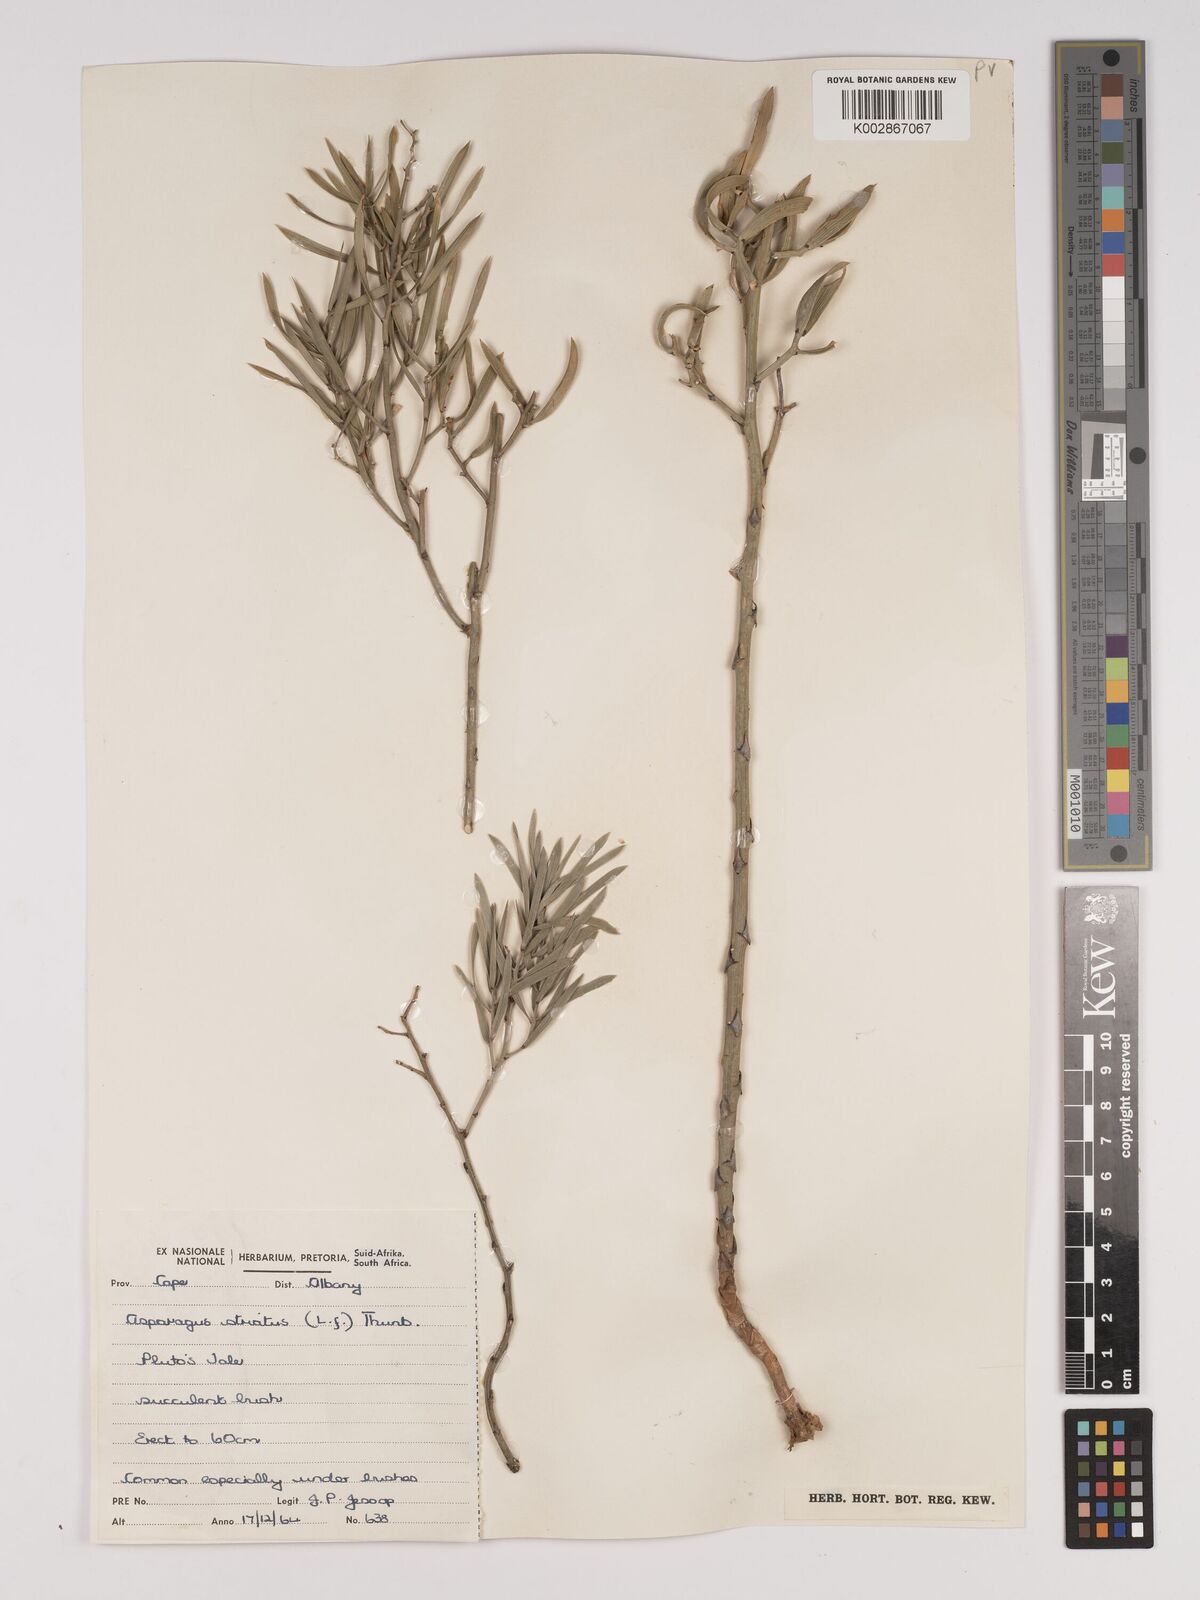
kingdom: Plantae
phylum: Tracheophyta
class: Liliopsida
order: Asparagales
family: Asparagaceae
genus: Asparagus
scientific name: Asparagus striatus
